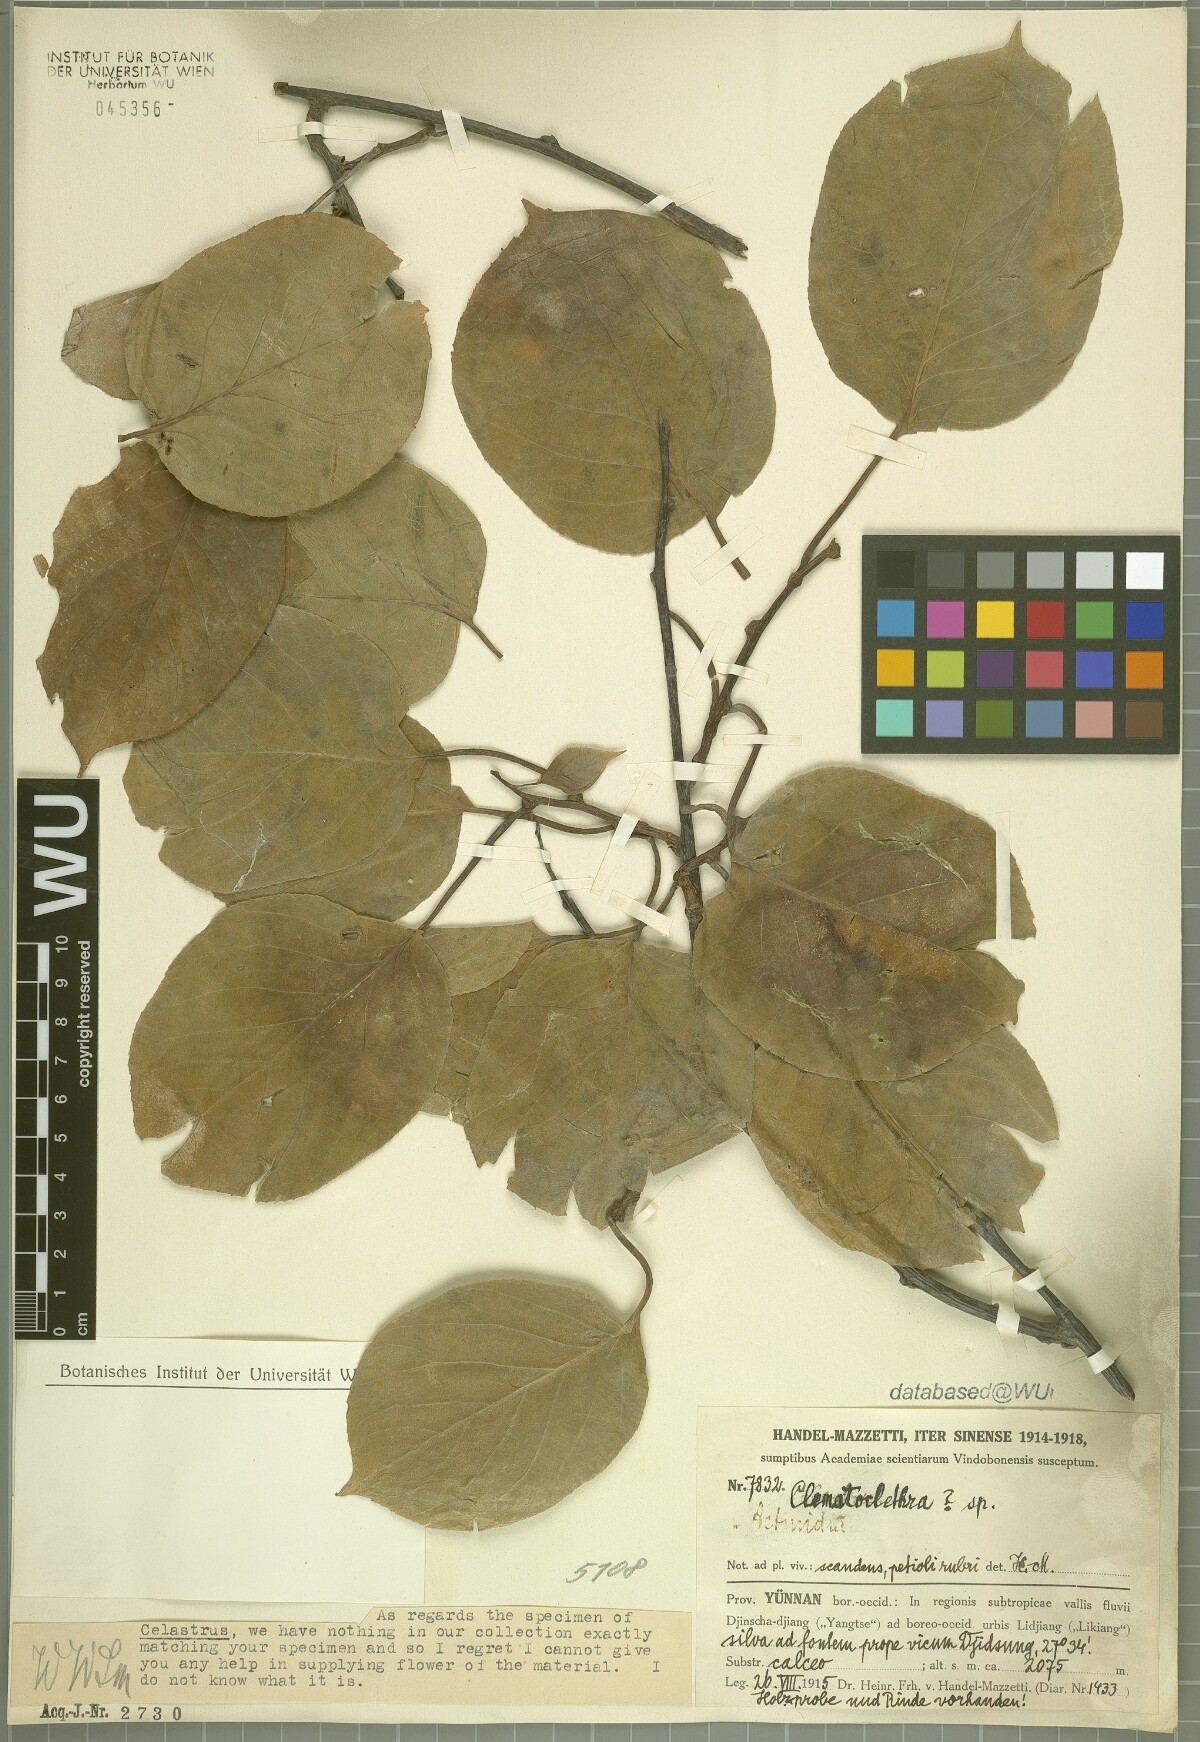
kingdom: Plantae
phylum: Tracheophyta
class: Magnoliopsida
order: Ericales
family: Actinidiaceae
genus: Clematoclethra
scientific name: Clematoclethra
